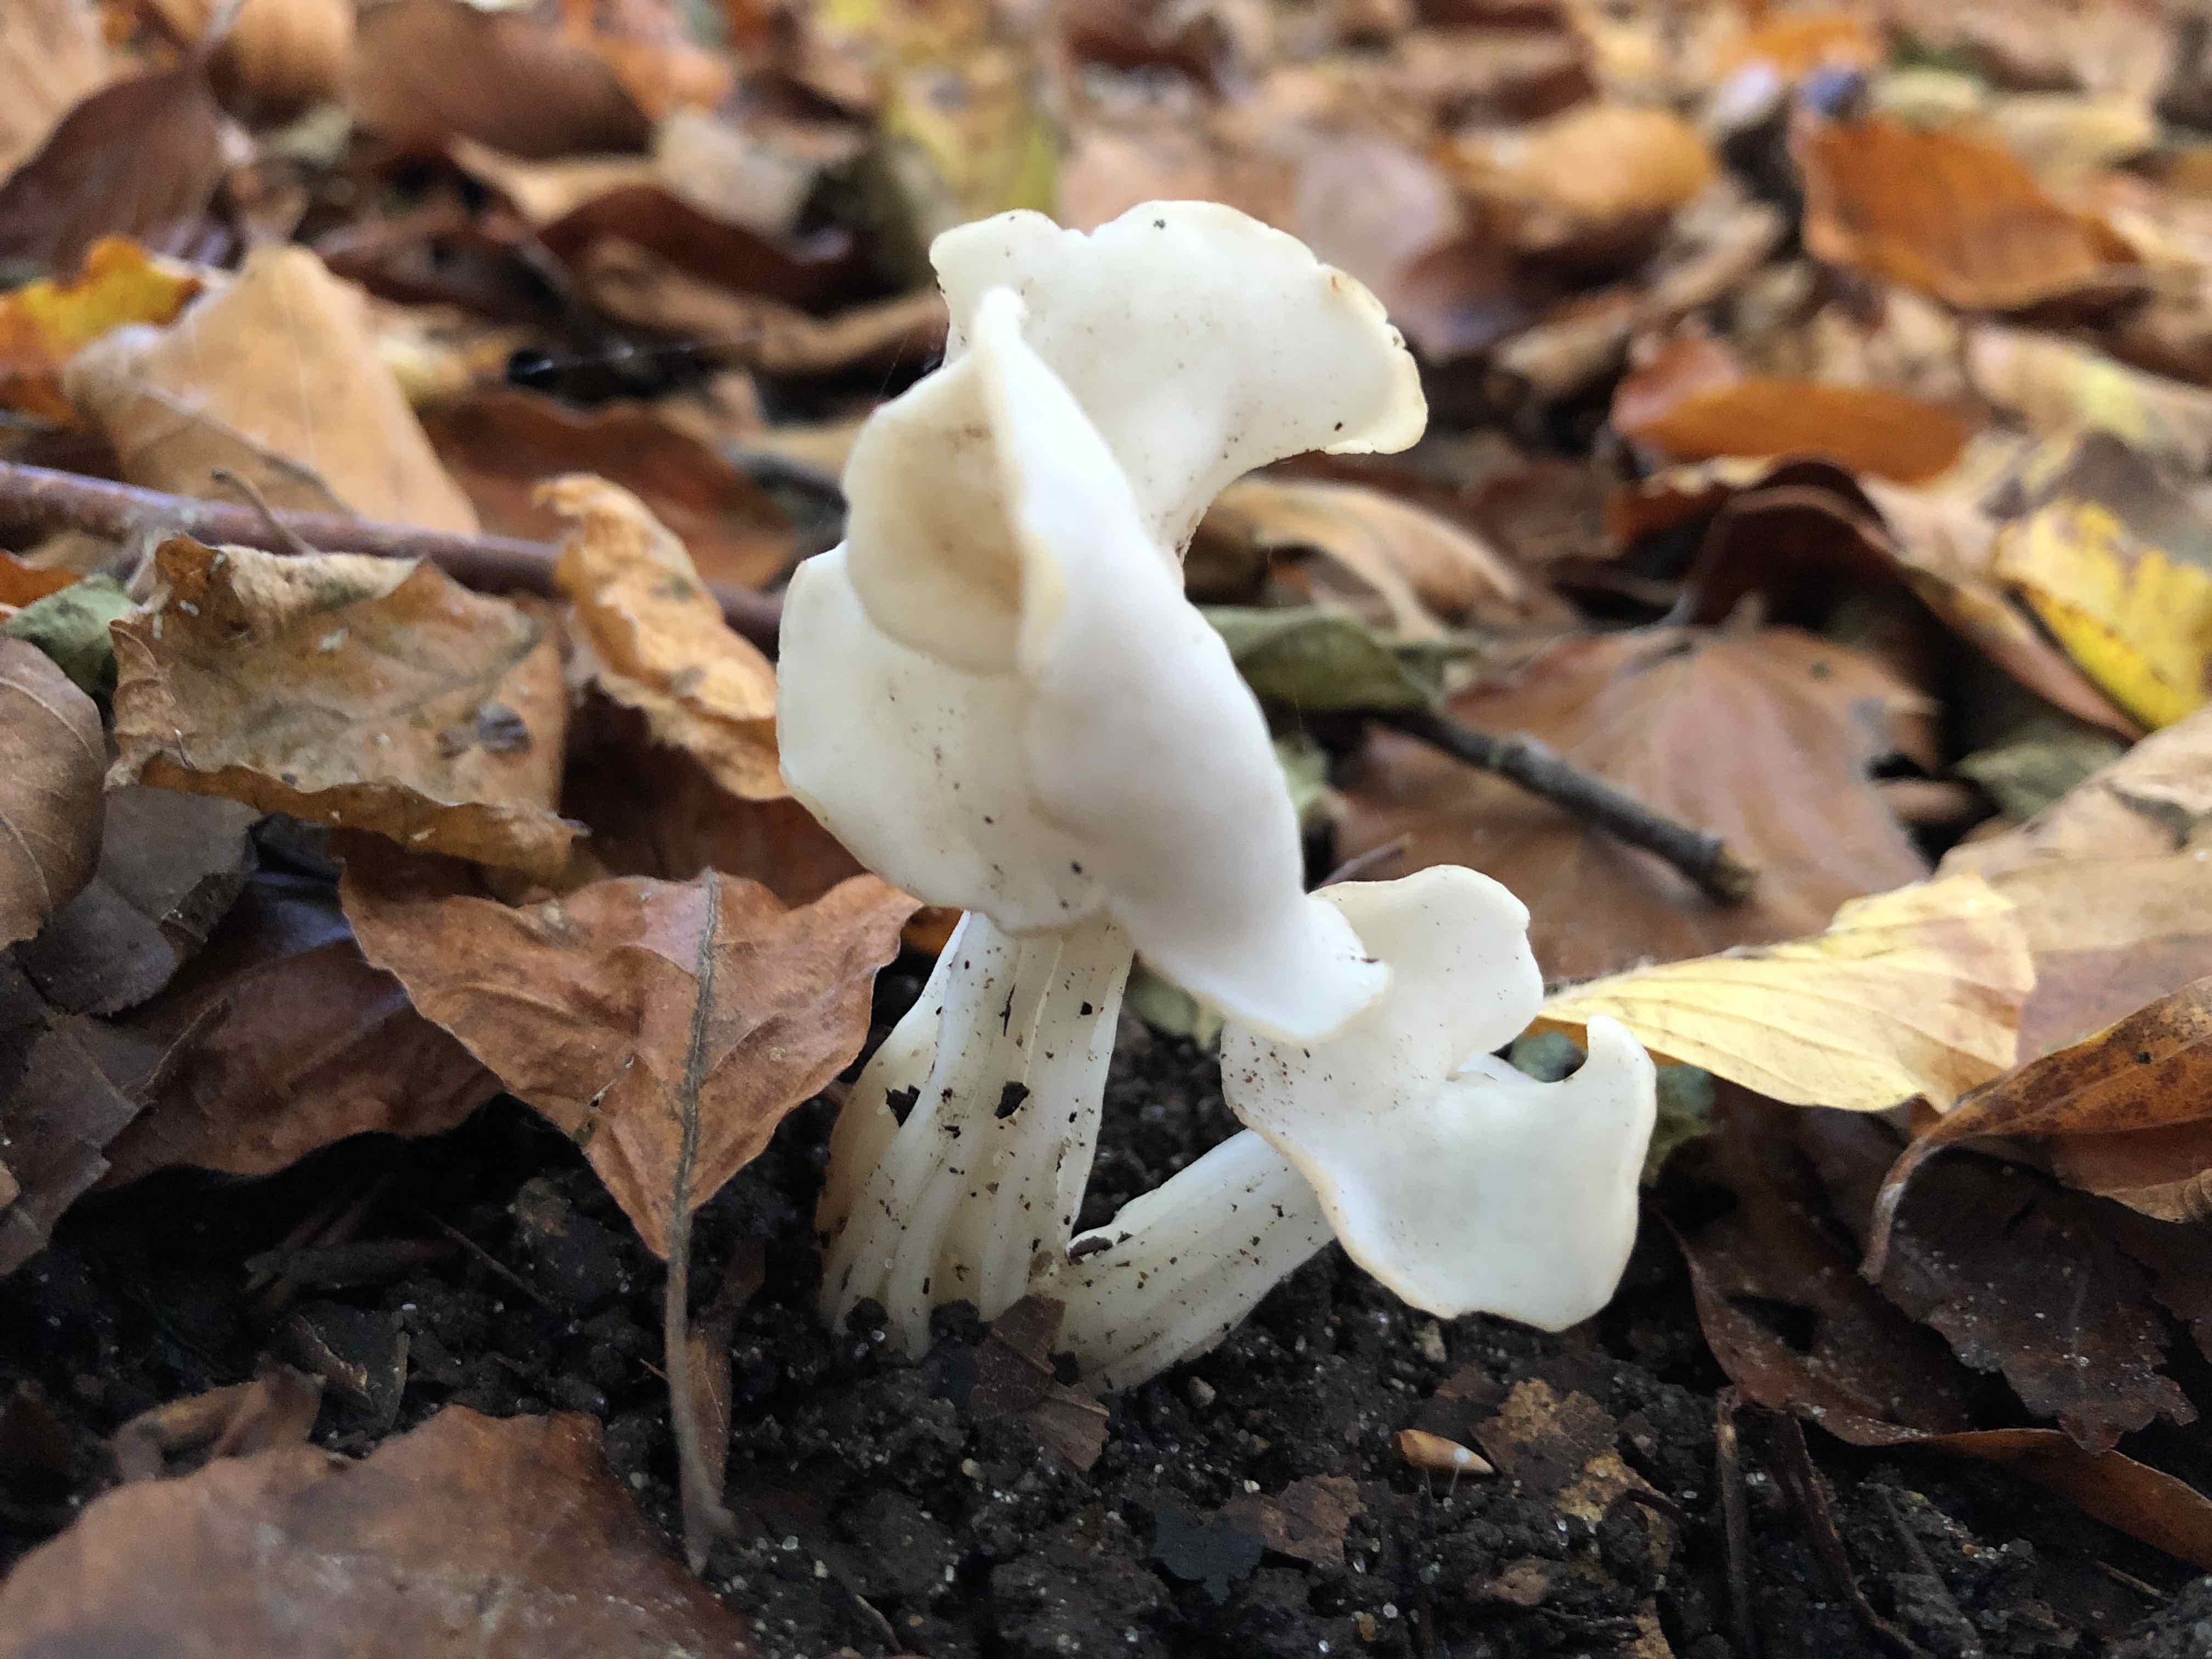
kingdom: Fungi
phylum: Ascomycota
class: Pezizomycetes
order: Pezizales
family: Helvellaceae
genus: Helvella
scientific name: Helvella crispa
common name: kruset foldhat
